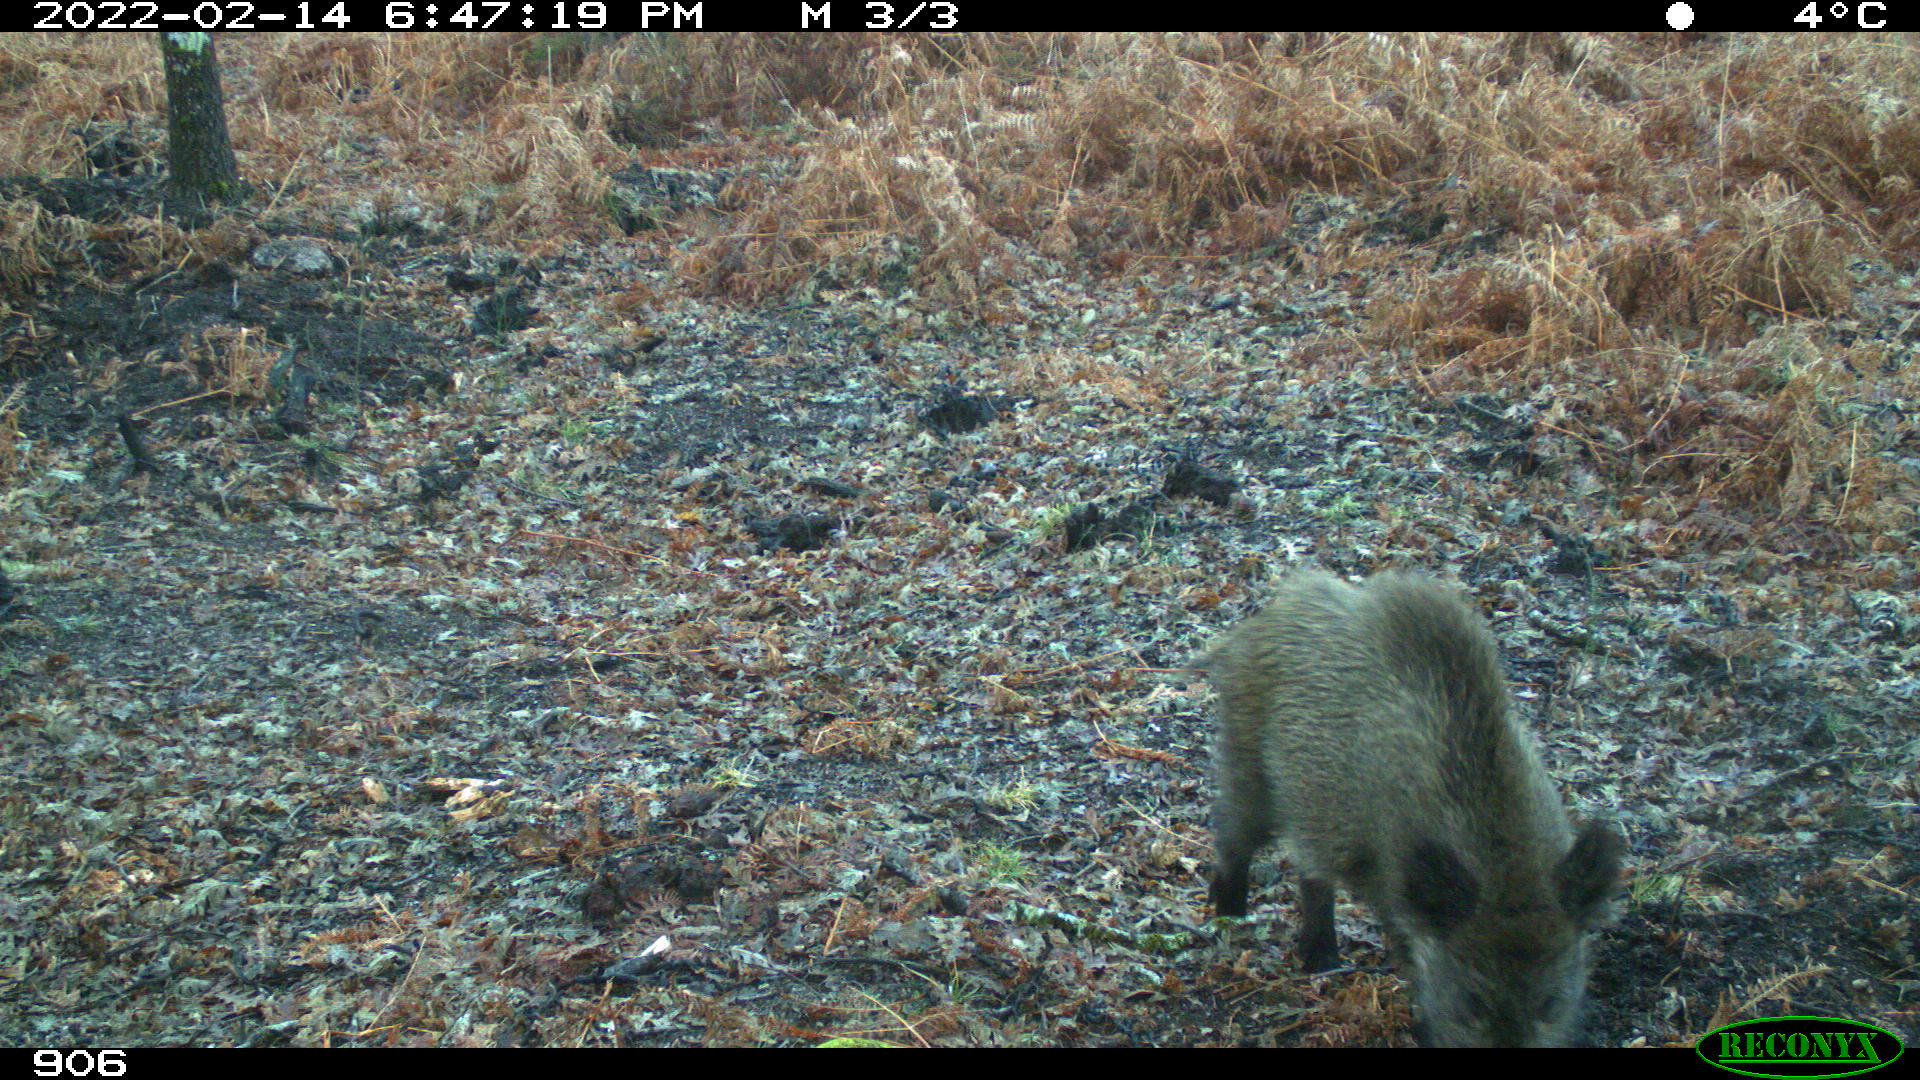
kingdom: Animalia
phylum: Chordata
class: Mammalia
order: Artiodactyla
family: Suidae
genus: Sus
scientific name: Sus scrofa
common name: Wild boar
